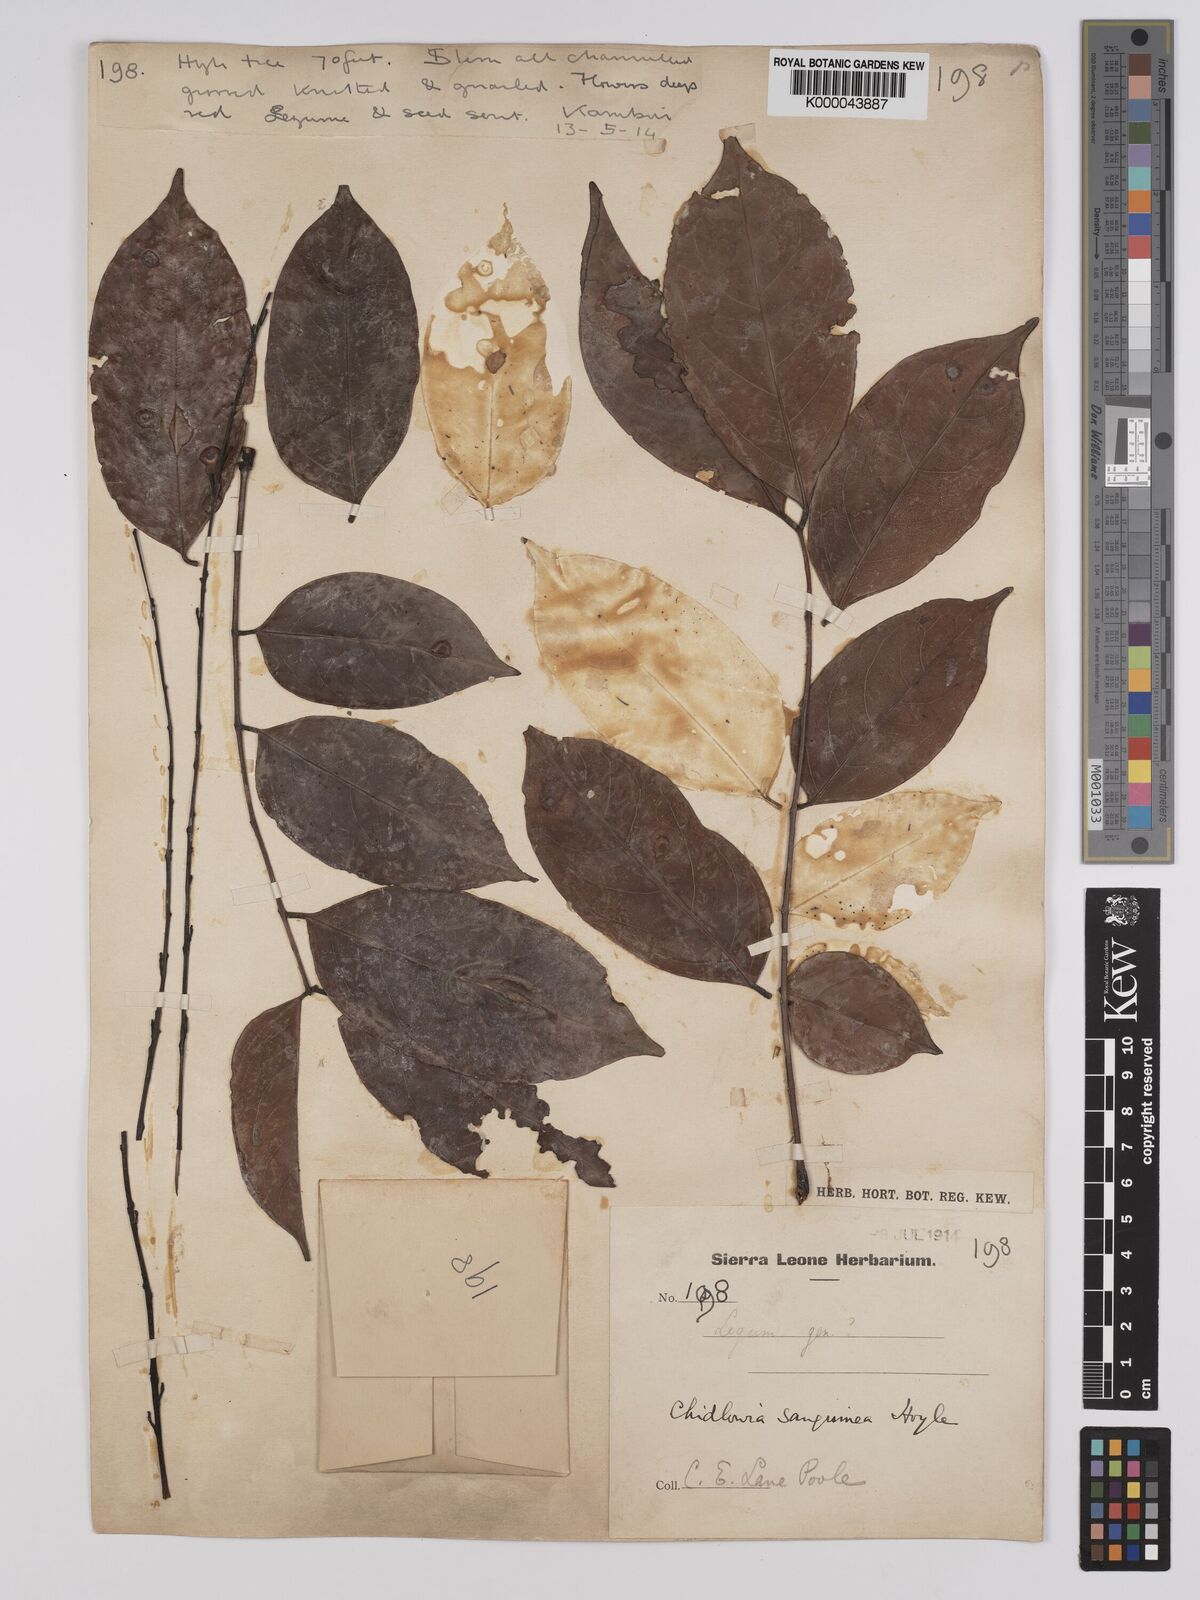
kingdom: Plantae
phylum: Tracheophyta
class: Magnoliopsida
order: Fabales
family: Fabaceae
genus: Chidlowia
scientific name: Chidlowia sanguinea
